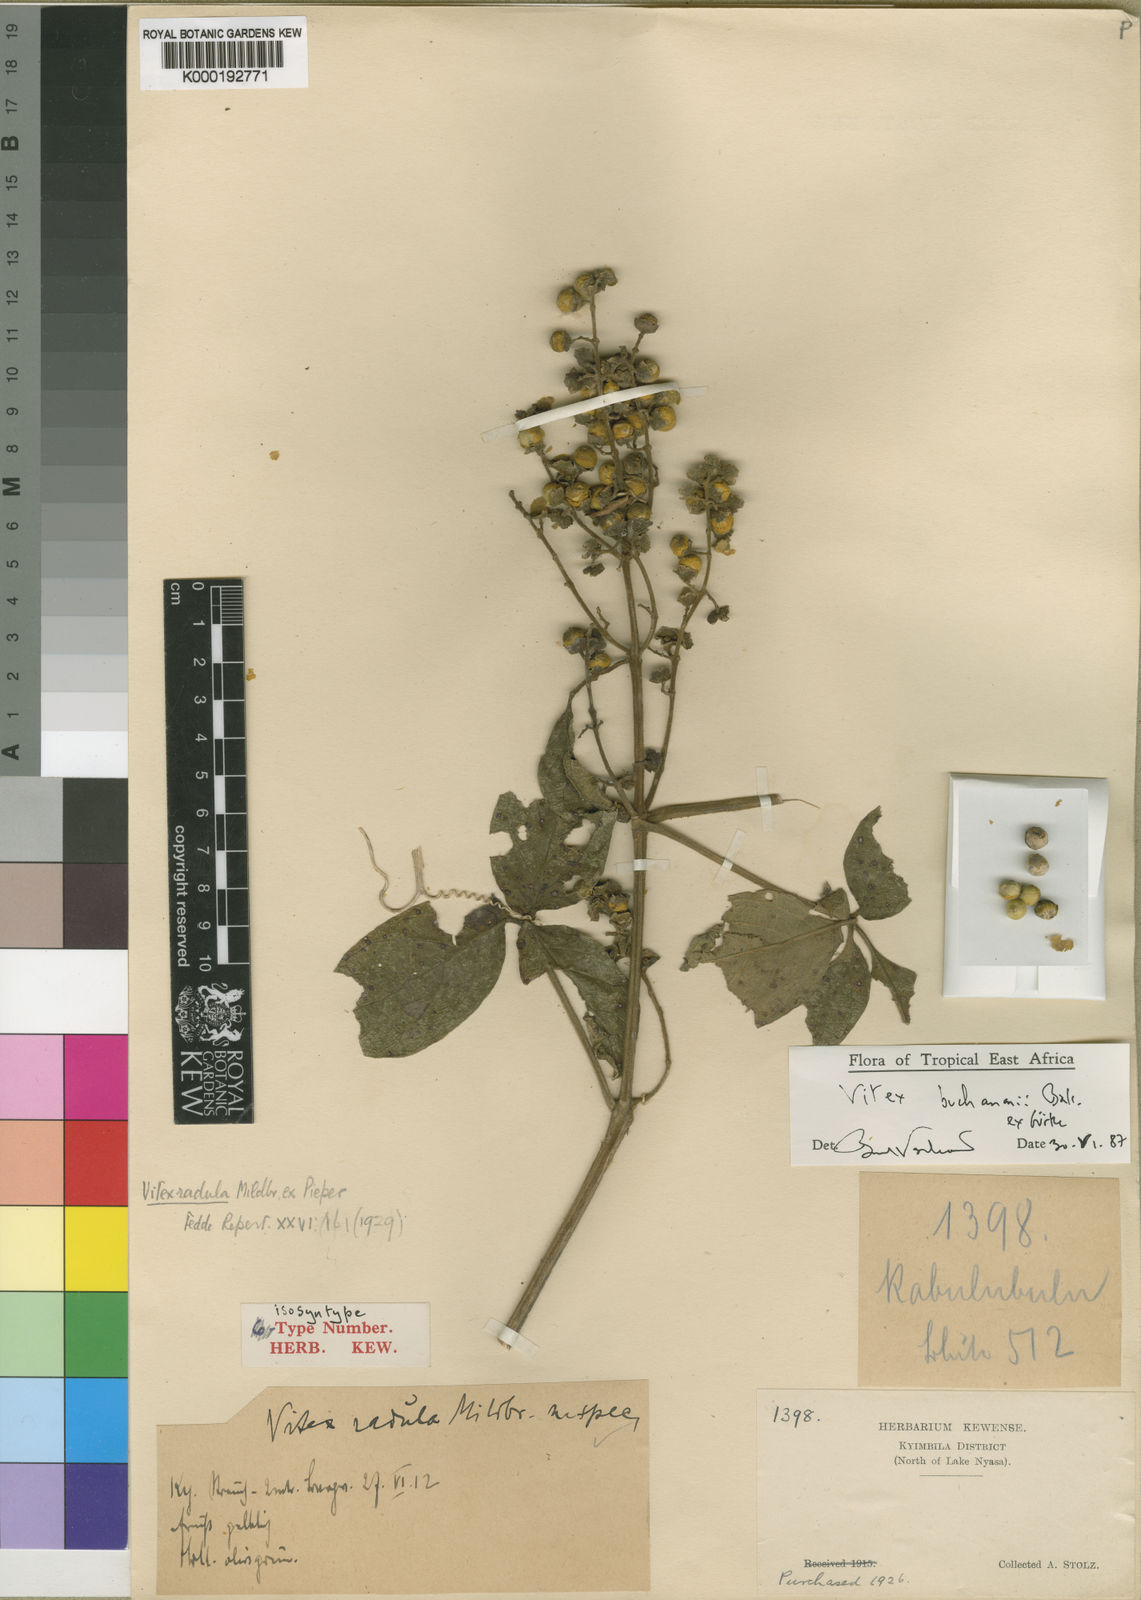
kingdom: Plantae
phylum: Tracheophyta
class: Magnoliopsida
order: Lamiales
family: Lamiaceae
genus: Vitex
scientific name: Vitex
